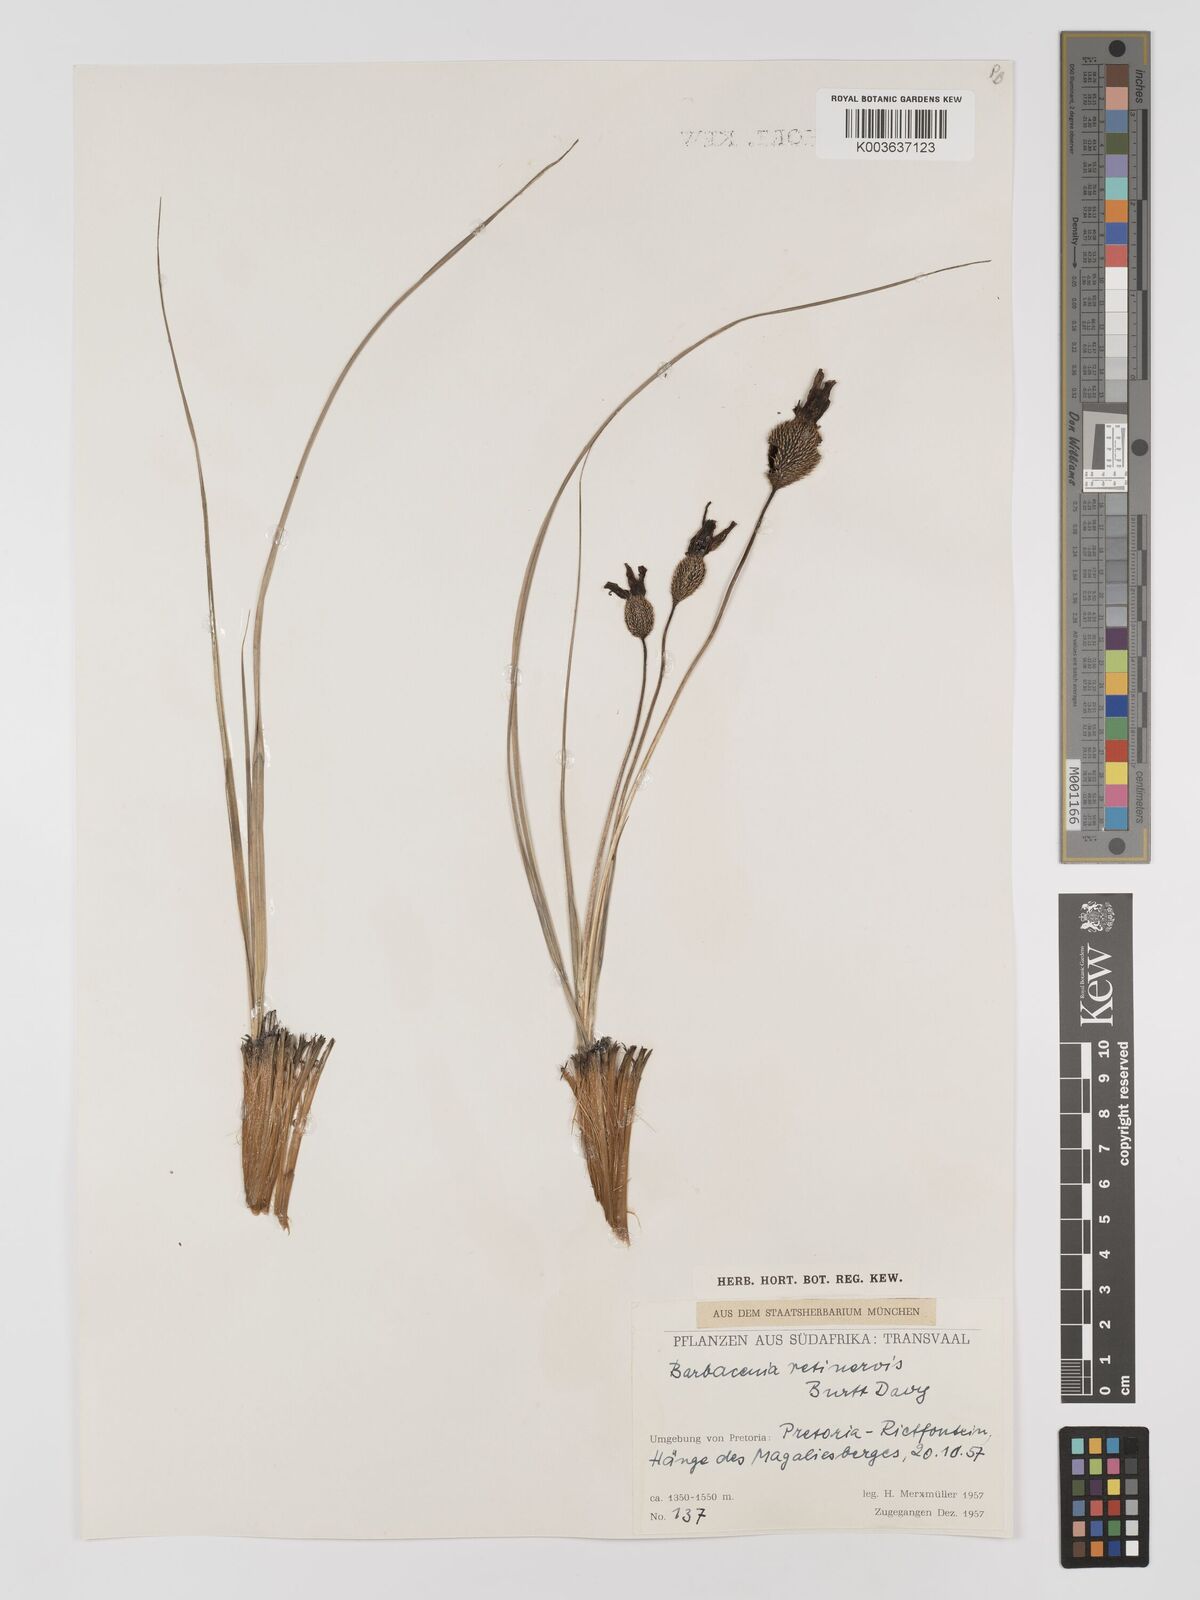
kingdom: Plantae
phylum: Tracheophyta
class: Liliopsida
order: Pandanales
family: Velloziaceae
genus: Xerophyta
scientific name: Xerophyta retinervis
